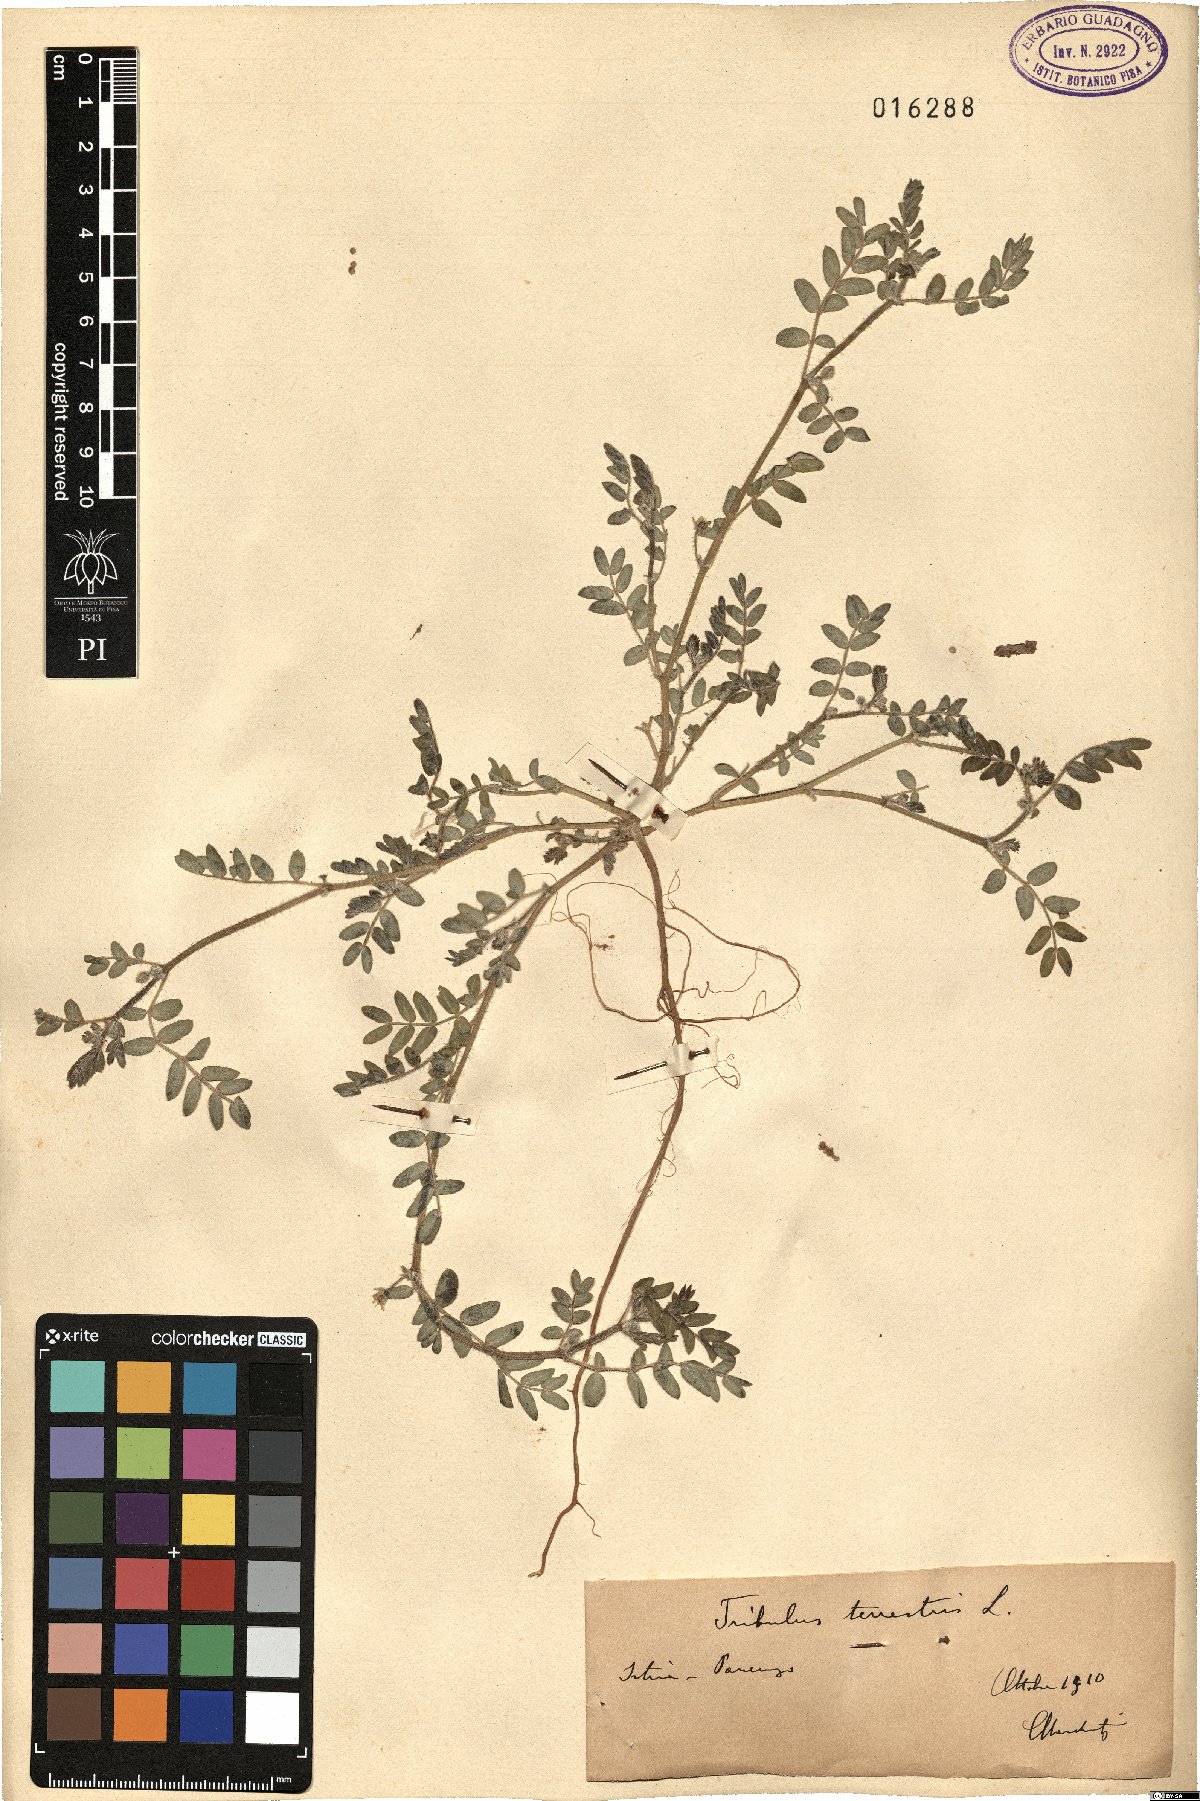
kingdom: Plantae
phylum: Tracheophyta
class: Magnoliopsida
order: Zygophyllales
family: Zygophyllaceae
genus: Tribulus
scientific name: Tribulus terrestris
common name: Puncturevine
